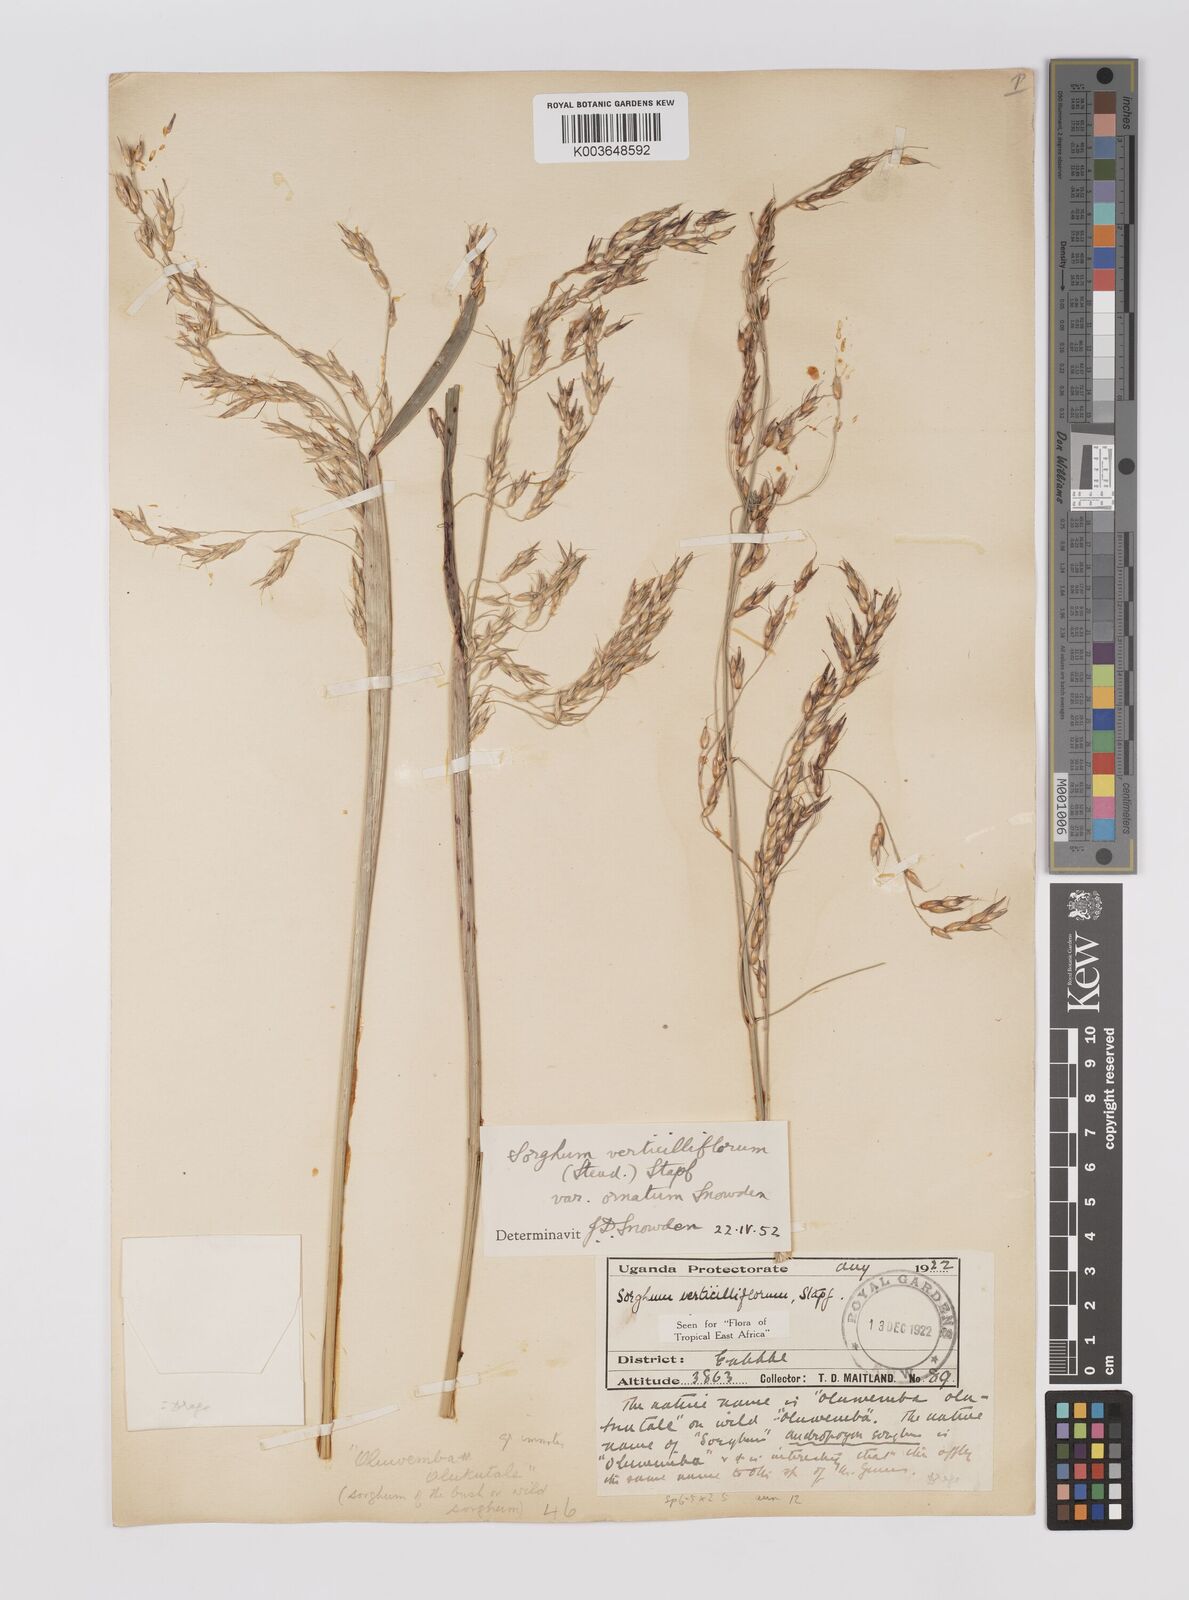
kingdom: Plantae
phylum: Tracheophyta
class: Liliopsida
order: Poales
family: Poaceae
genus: Sorghum
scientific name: Sorghum arundinaceum
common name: Sorghum
